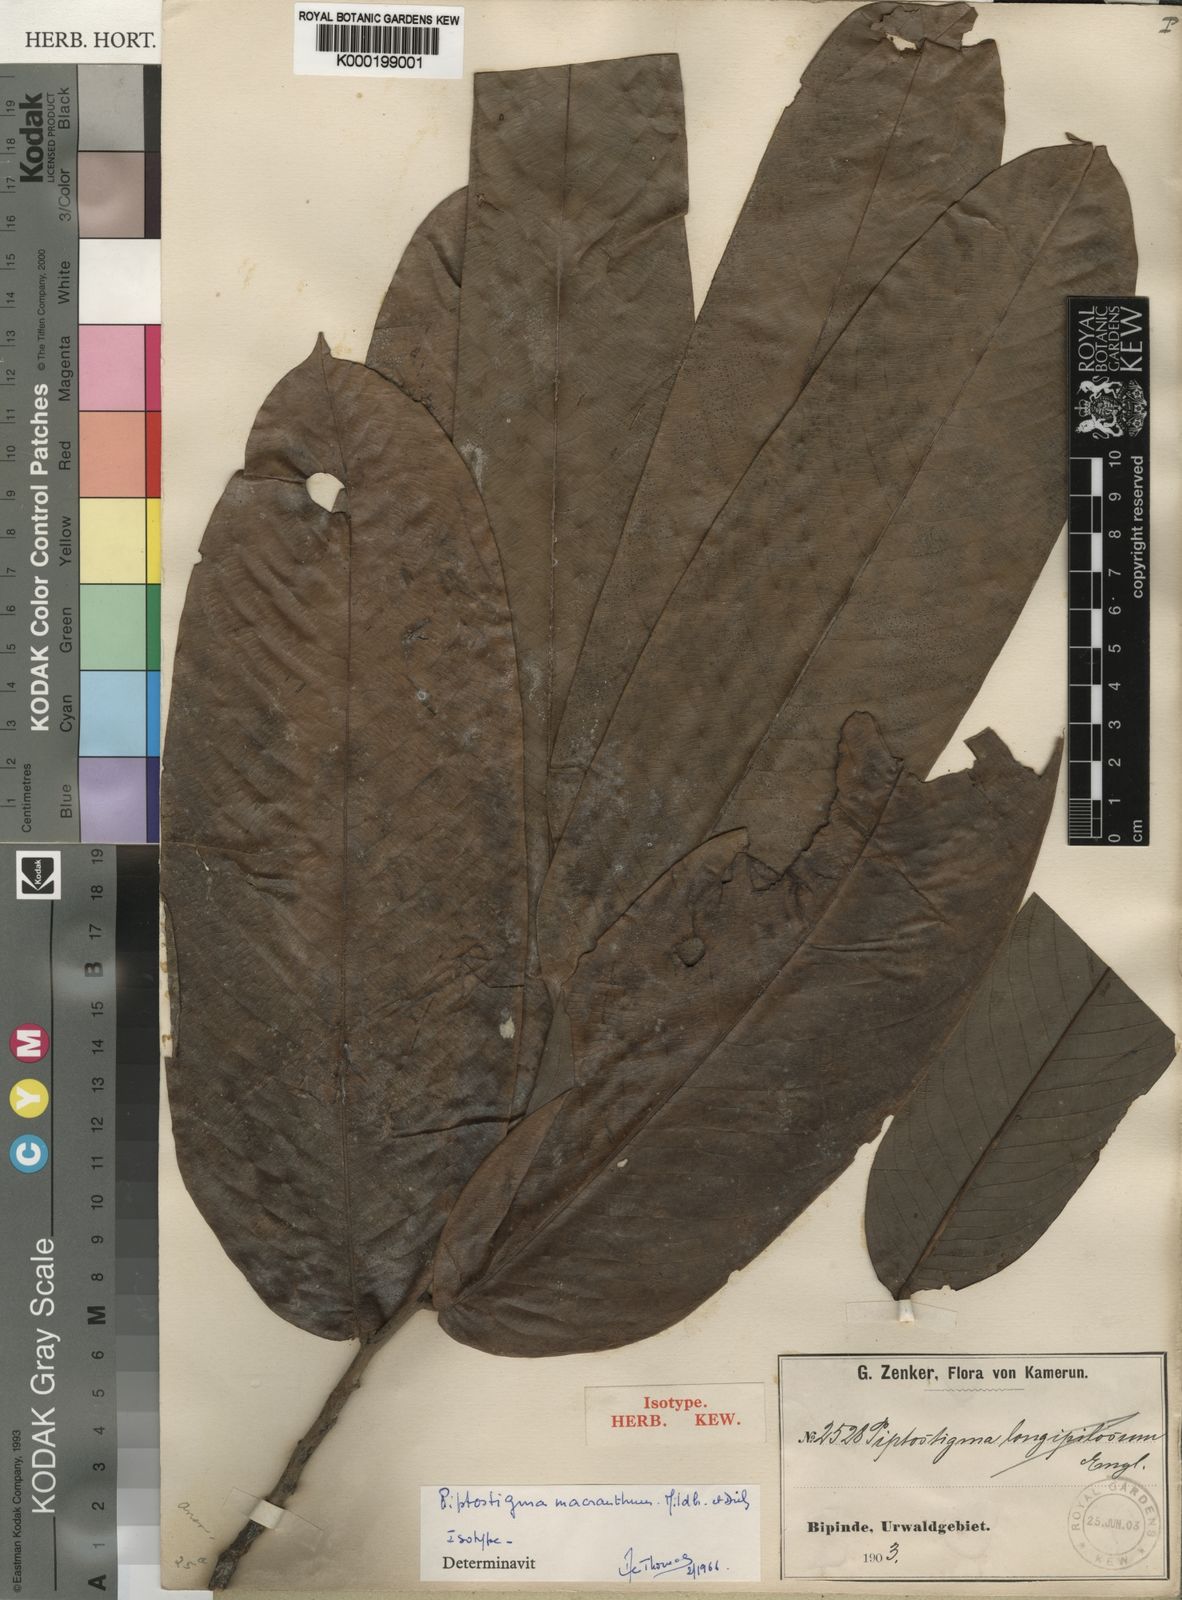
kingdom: Plantae
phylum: Tracheophyta
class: Magnoliopsida
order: Magnoliales
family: Annonaceae
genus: Piptostigma
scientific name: Piptostigma macranthum
